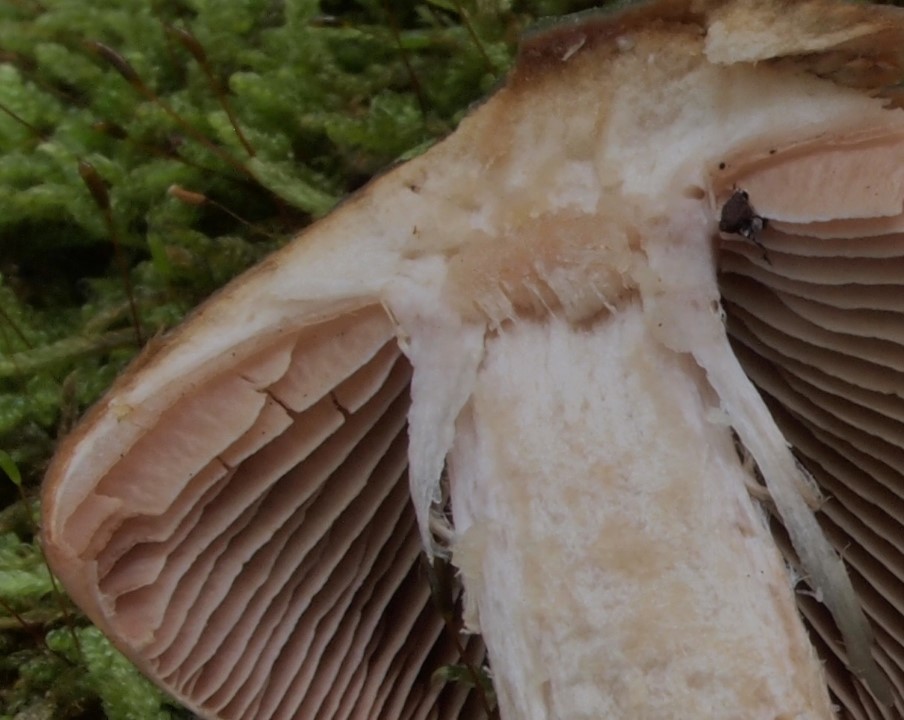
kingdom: Fungi
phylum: Basidiomycota
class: Agaricomycetes
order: Agaricales
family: Cortinariaceae
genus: Cortinarius
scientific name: Cortinarius elatior
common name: høj slørhat
